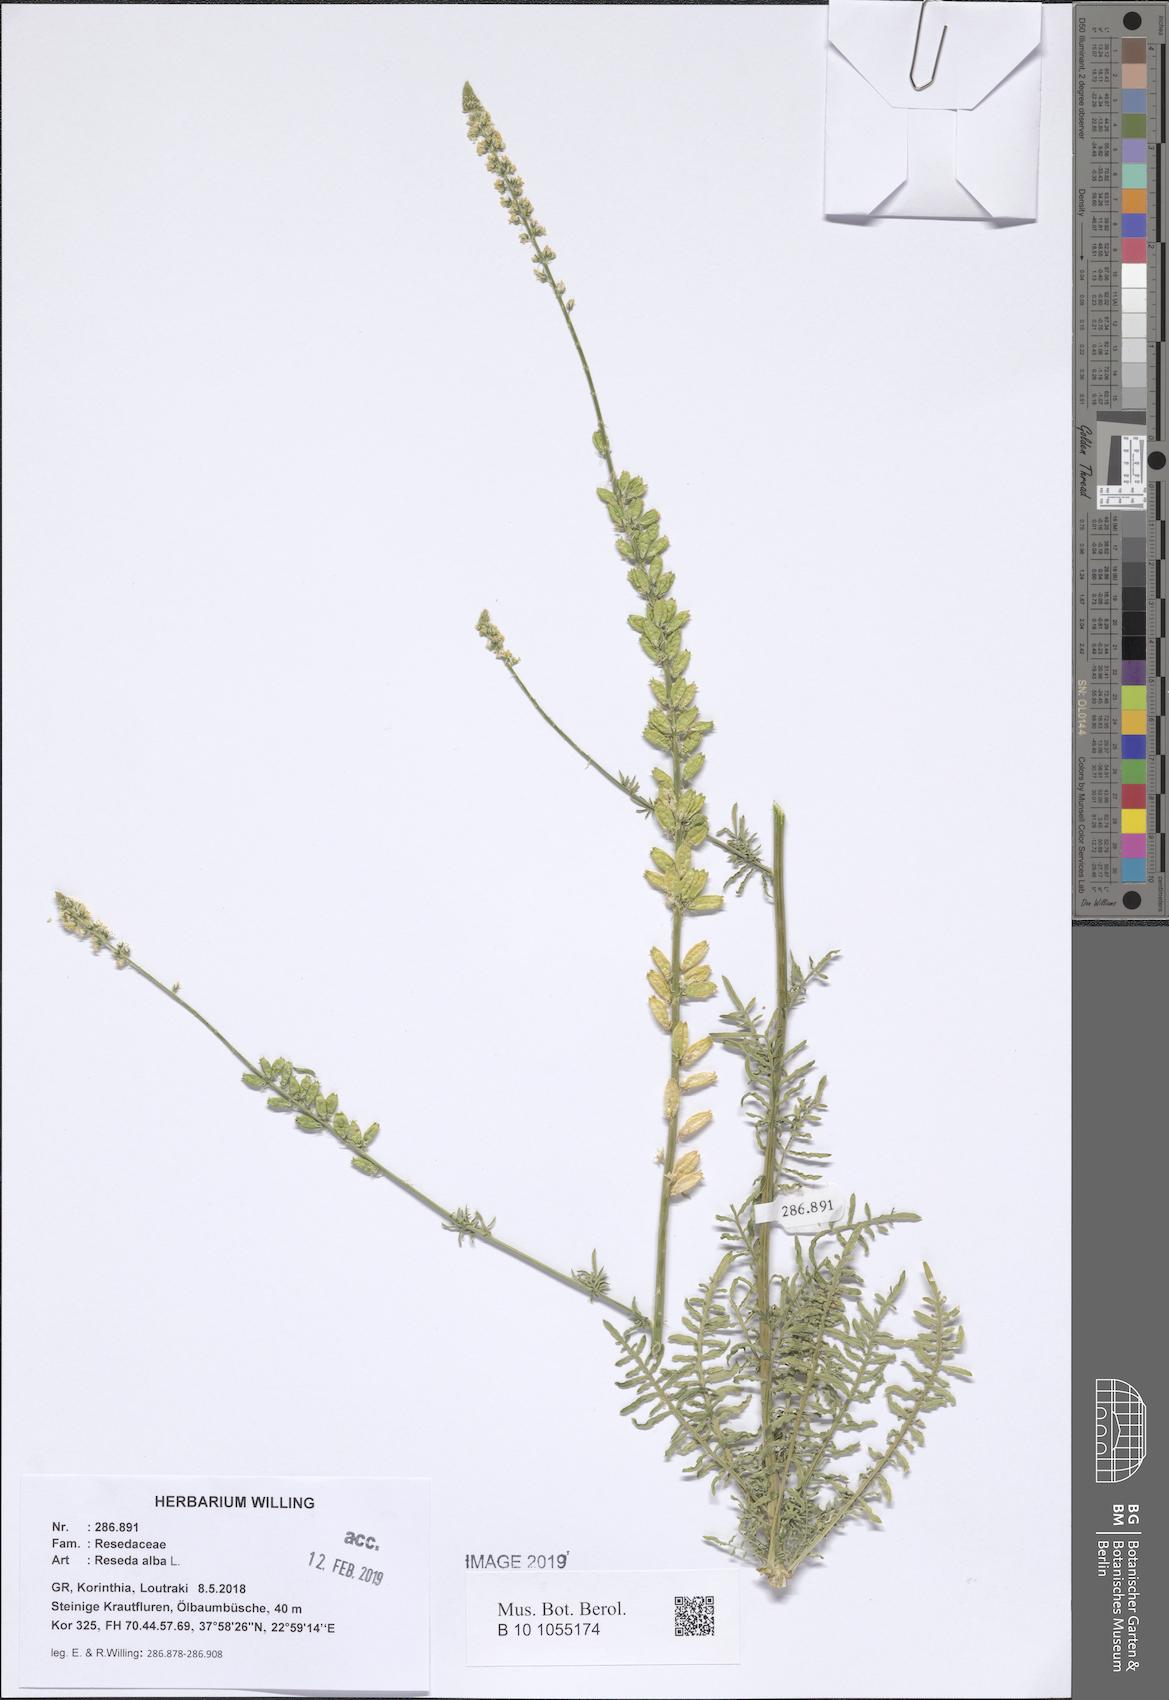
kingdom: Plantae
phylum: Tracheophyta
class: Magnoliopsida
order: Brassicales
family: Resedaceae
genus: Reseda
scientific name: Reseda alba
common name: White mignonette
